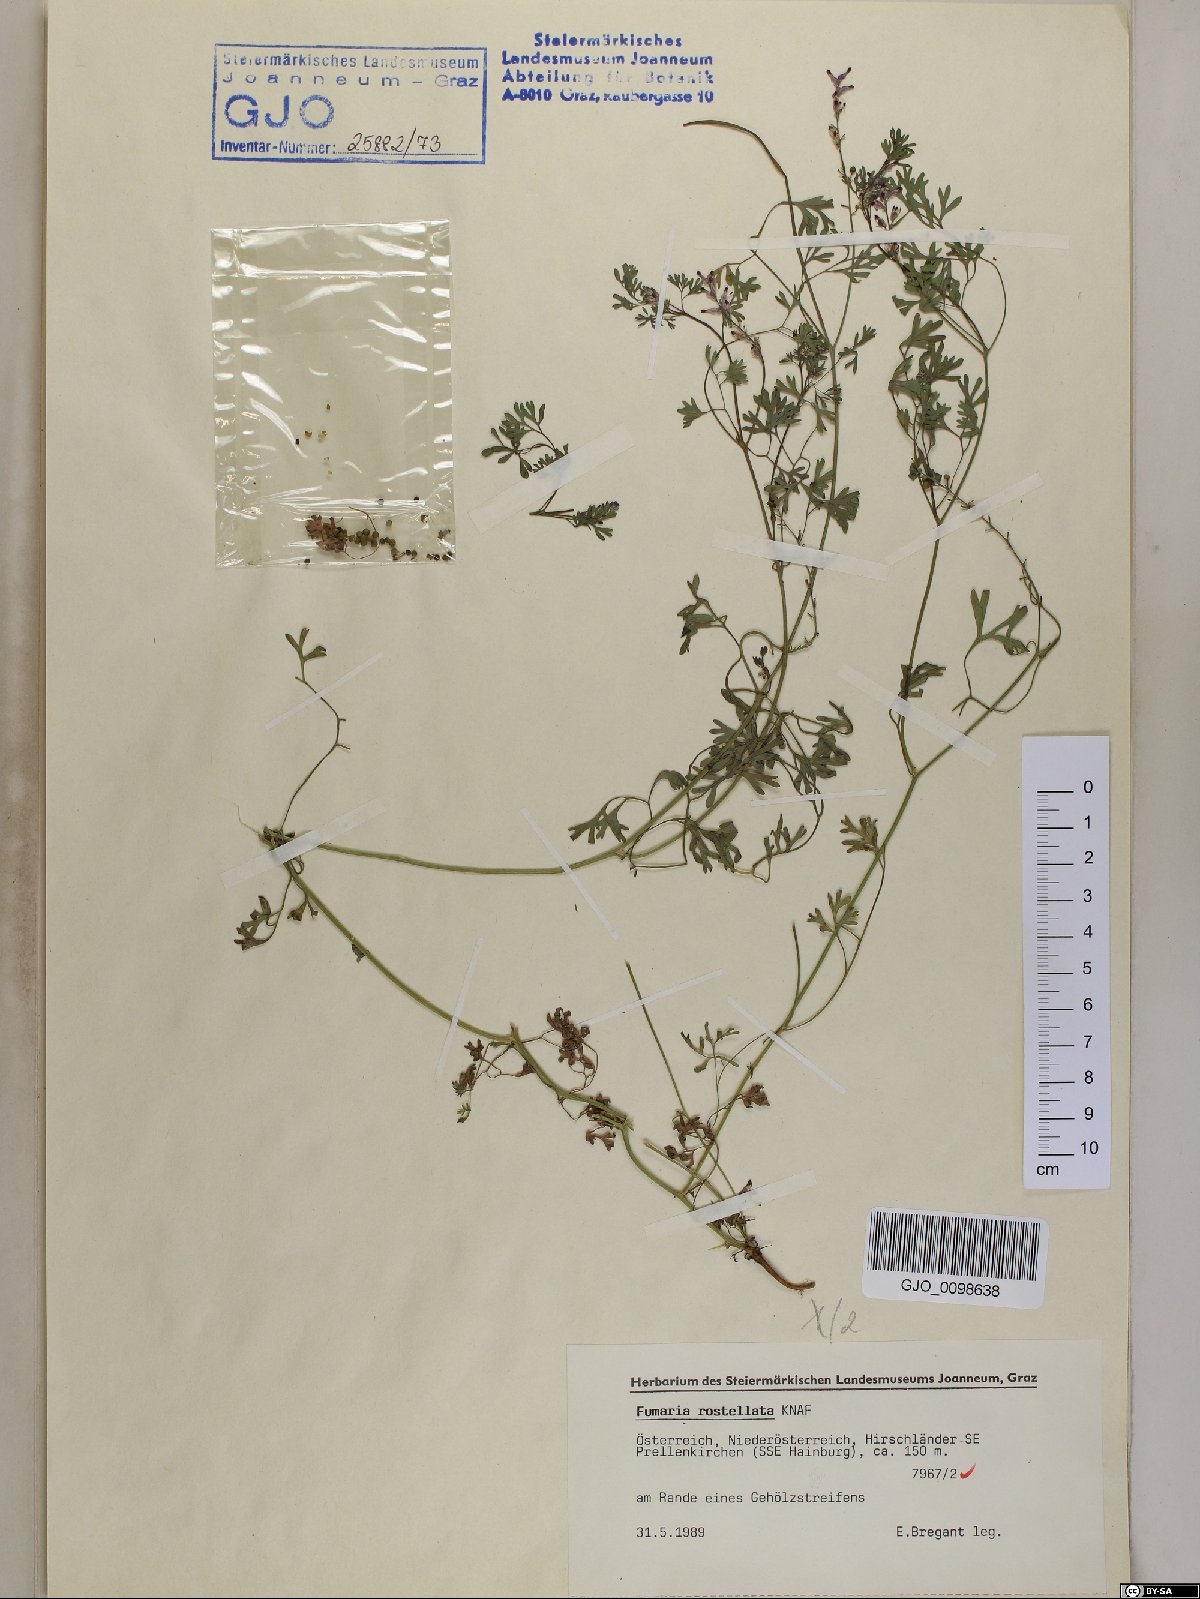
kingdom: Plantae
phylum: Tracheophyta
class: Magnoliopsida
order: Ranunculales
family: Papaveraceae
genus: Fumaria
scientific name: Fumaria rostellata
